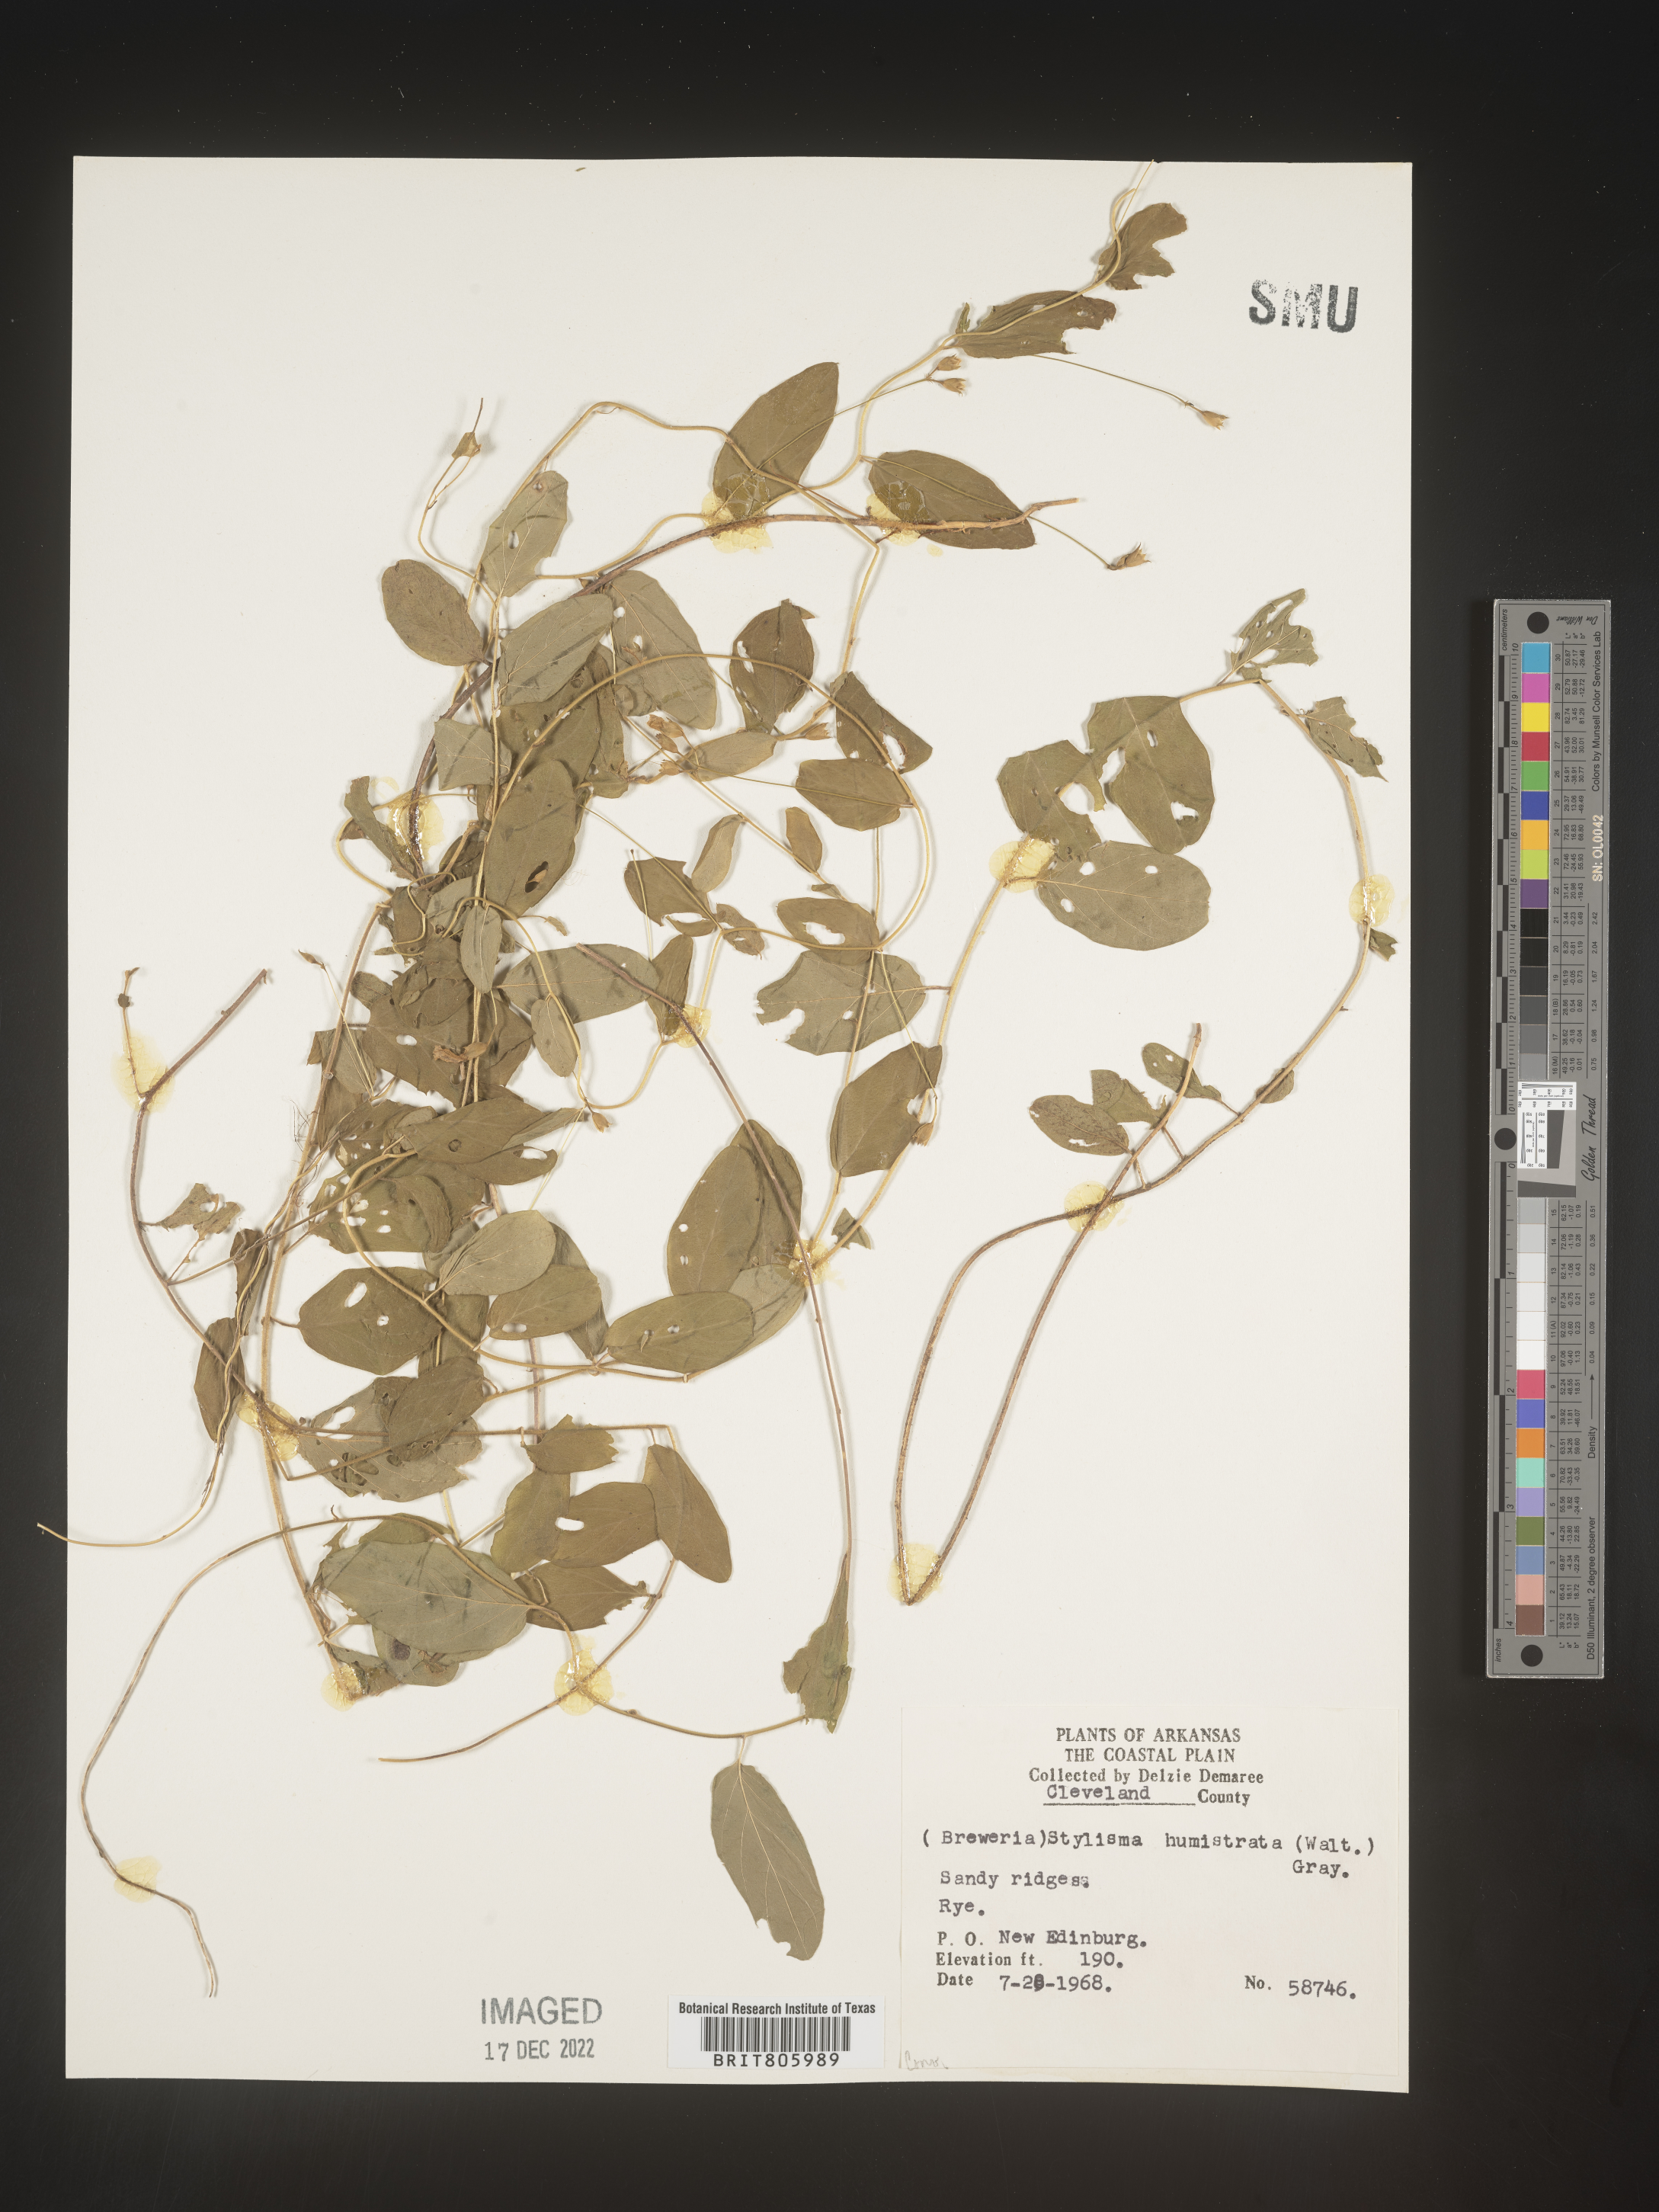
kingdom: Plantae
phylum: Tracheophyta
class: Magnoliopsida
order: Solanales
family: Convolvulaceae
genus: Stylisma
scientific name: Stylisma humistrata
